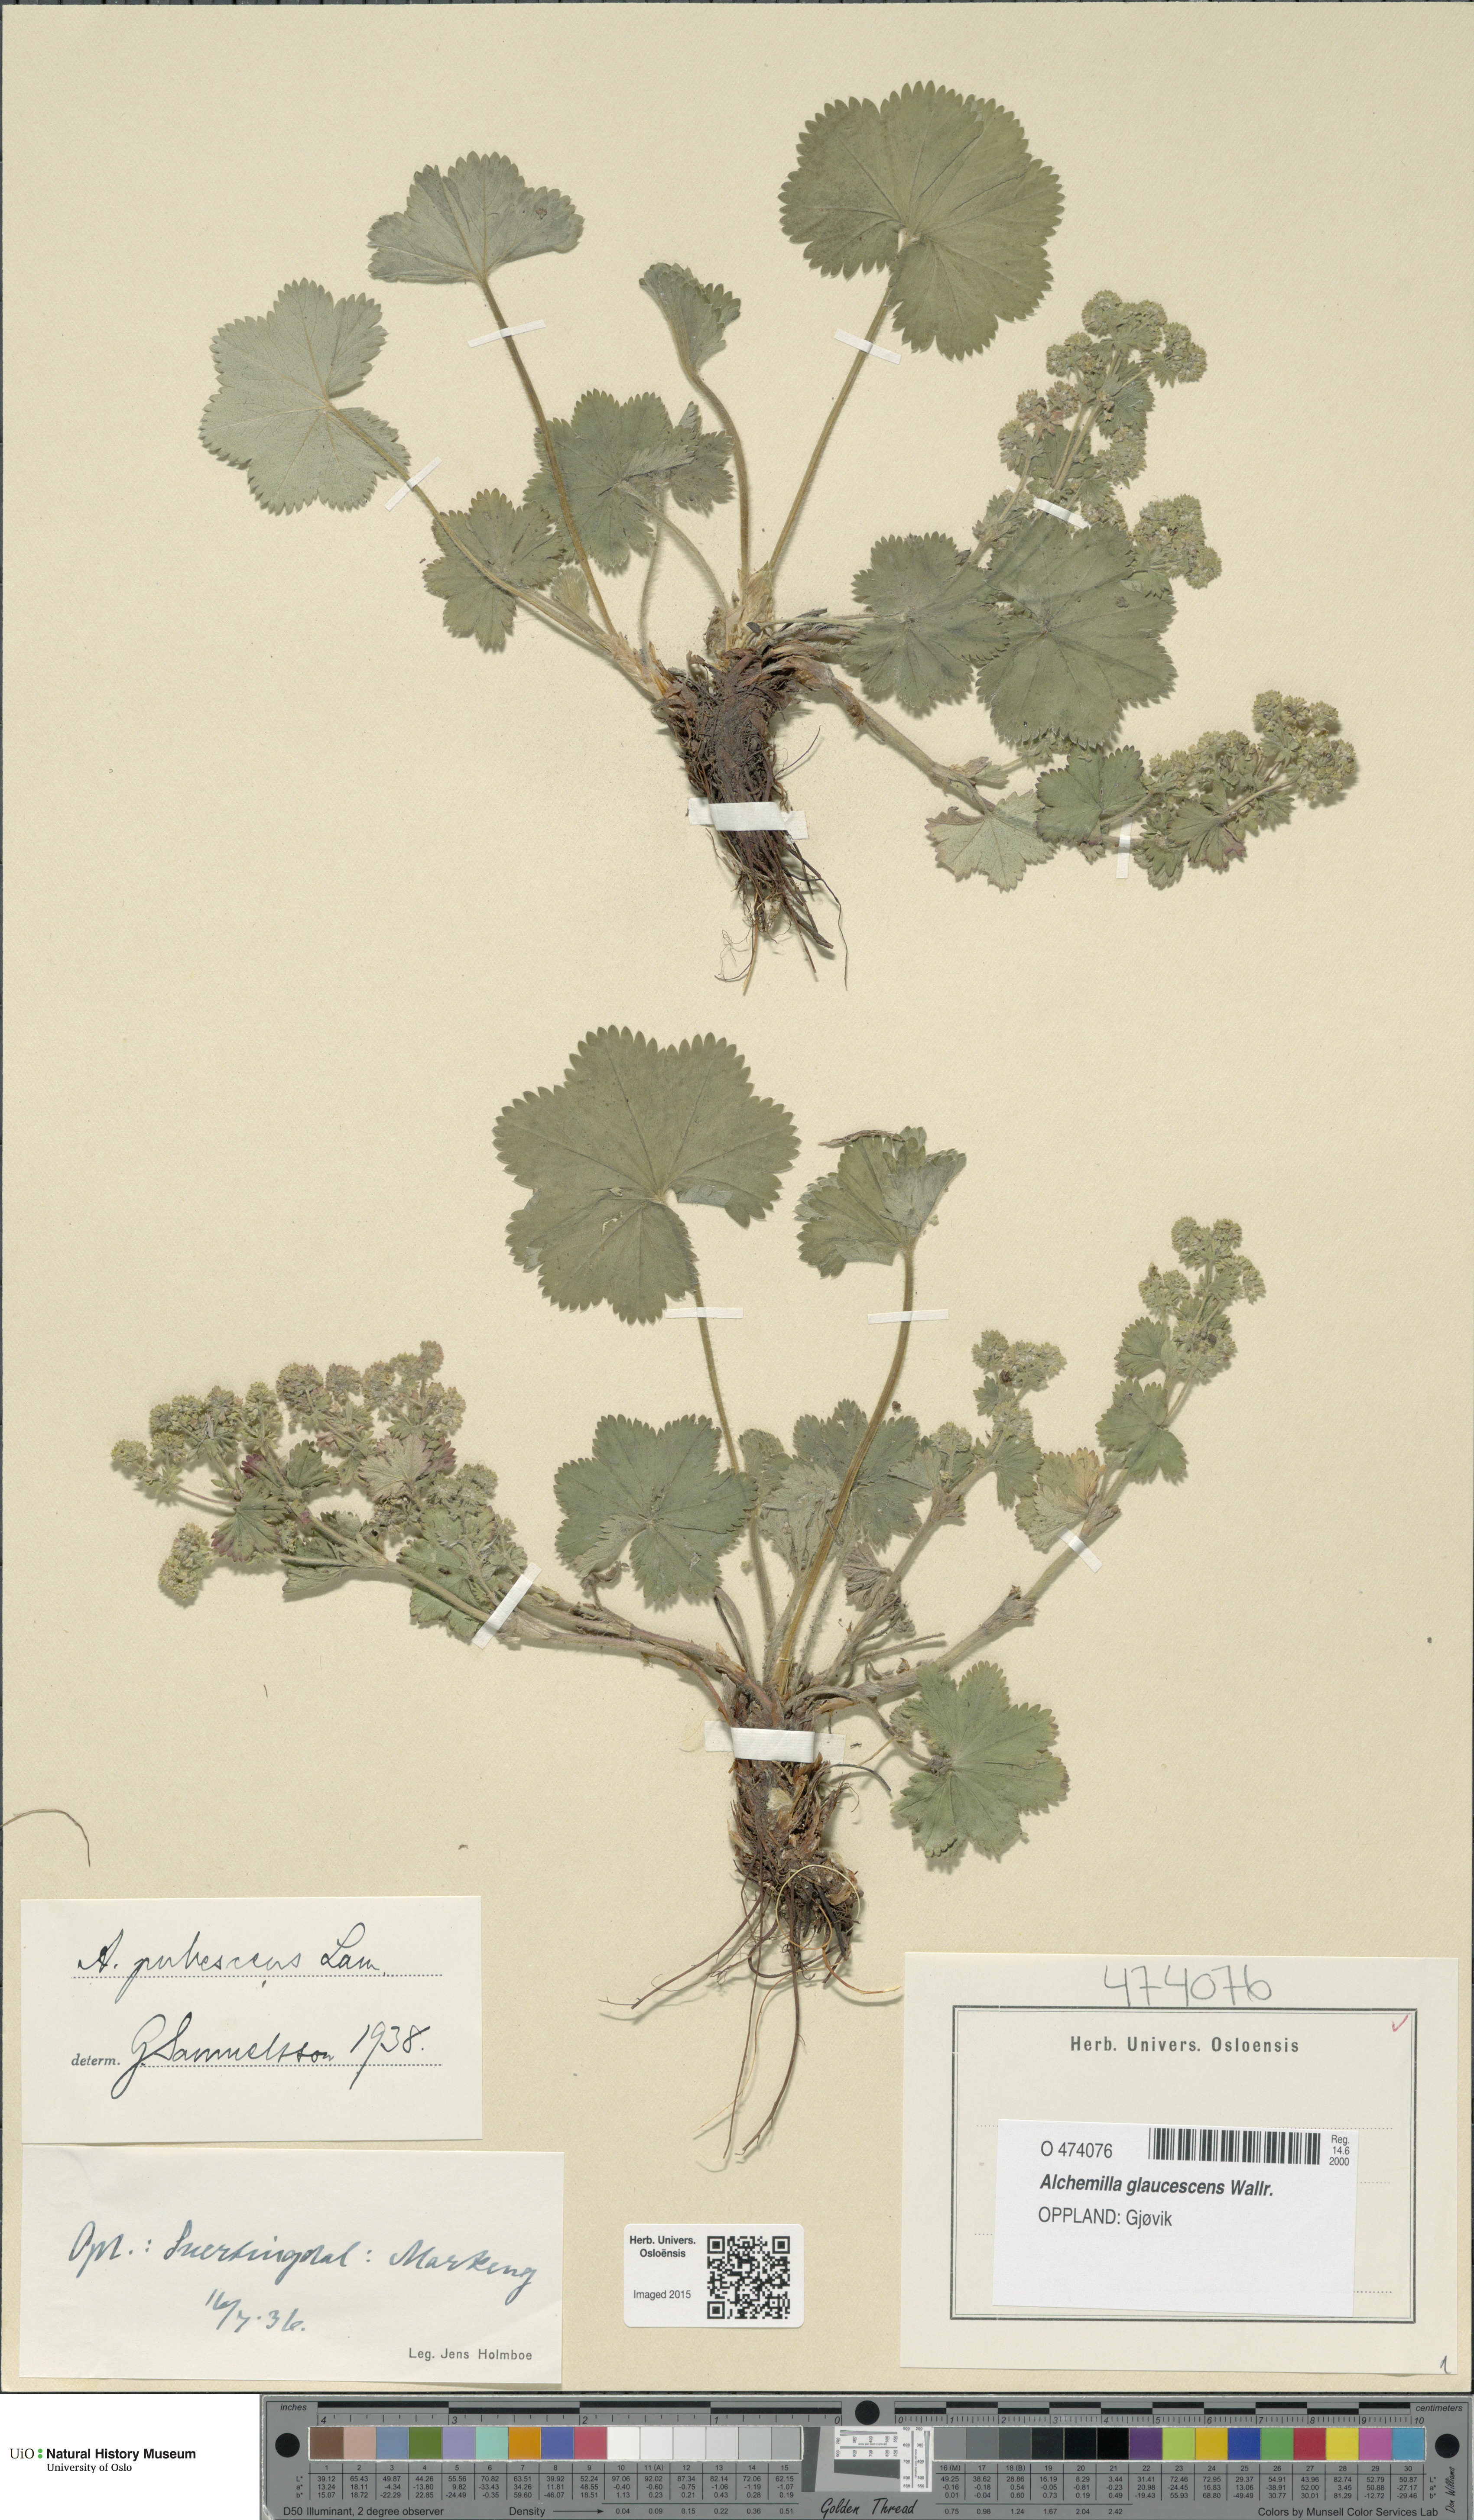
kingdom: Plantae
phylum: Tracheophyta
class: Magnoliopsida
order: Rosales
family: Rosaceae
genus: Alchemilla
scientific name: Alchemilla glaucescens
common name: Silky lady's mantle
